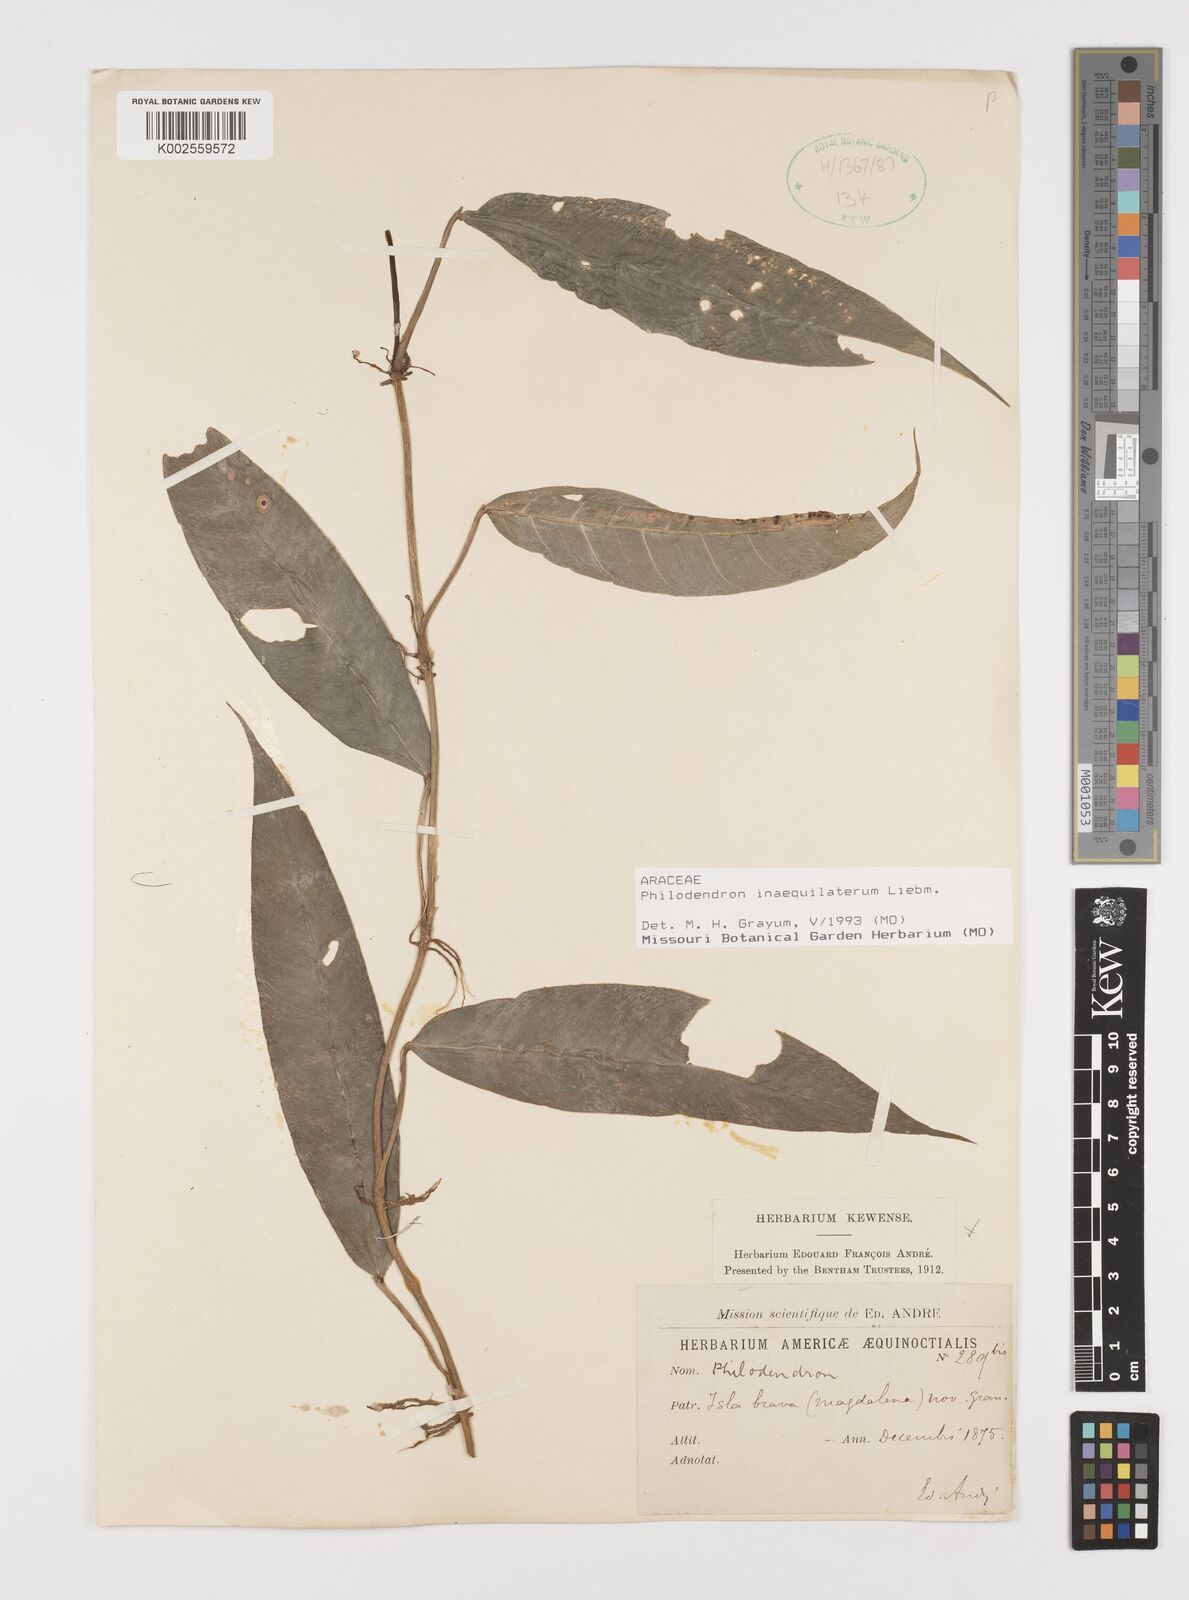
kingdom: Plantae
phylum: Tracheophyta
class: Liliopsida
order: Alismatales
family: Araceae
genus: Philodendron
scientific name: Philodendron inaequilaterum
